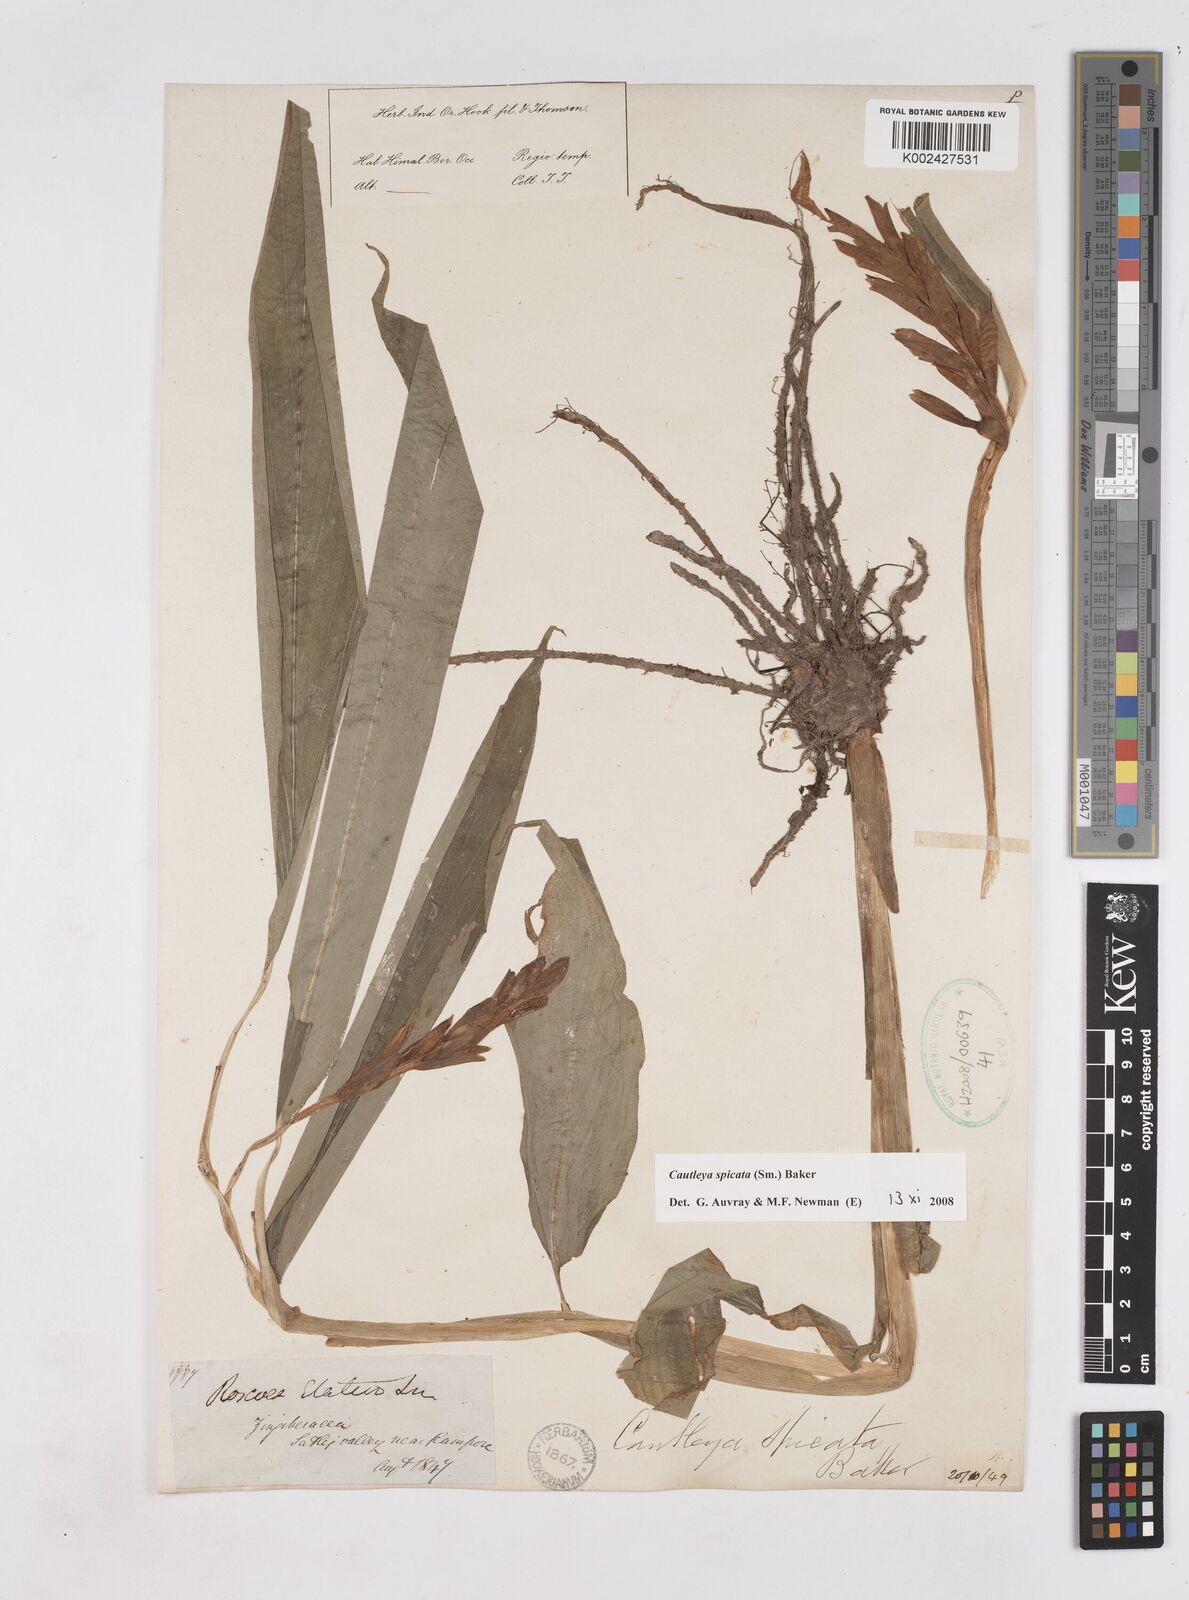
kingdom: Plantae
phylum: Tracheophyta
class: Liliopsida
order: Zingiberales
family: Zingiberaceae
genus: Cautleya
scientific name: Cautleya spicata
